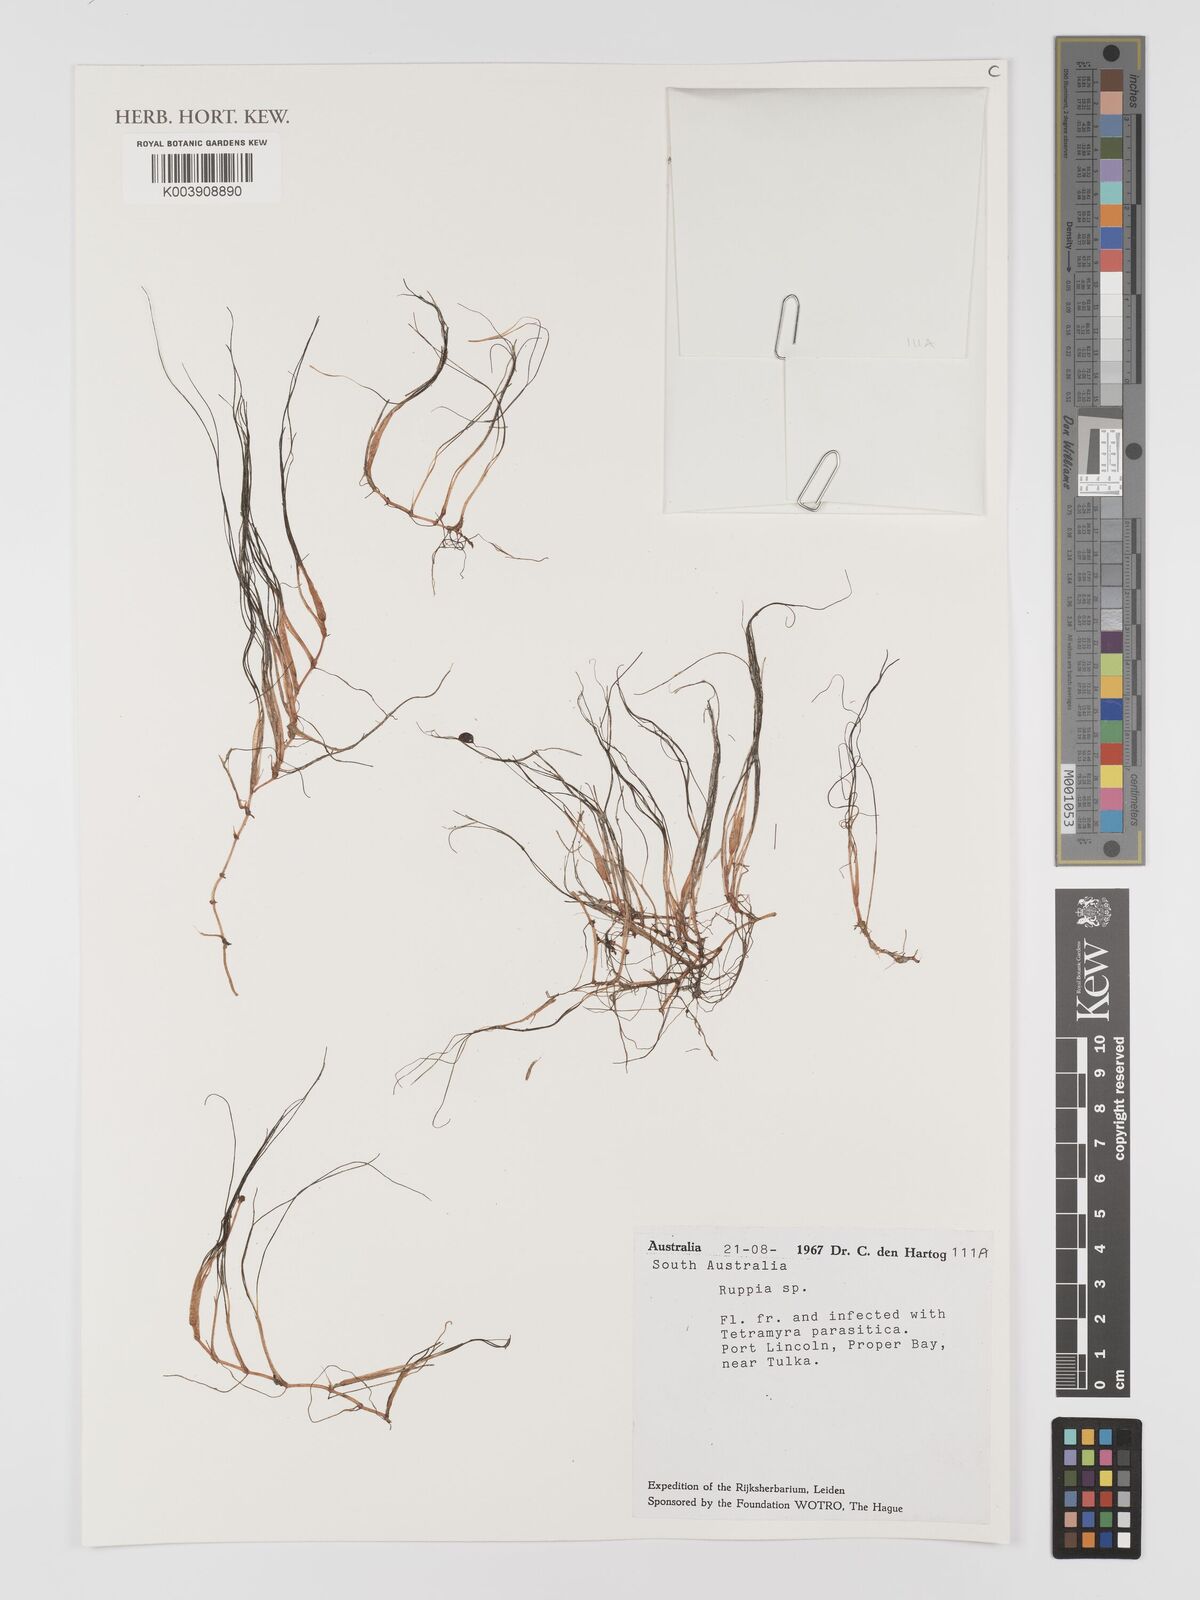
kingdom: Plantae
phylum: Tracheophyta
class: Liliopsida
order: Alismatales
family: Ruppiaceae
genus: Ruppia
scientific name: Ruppia
